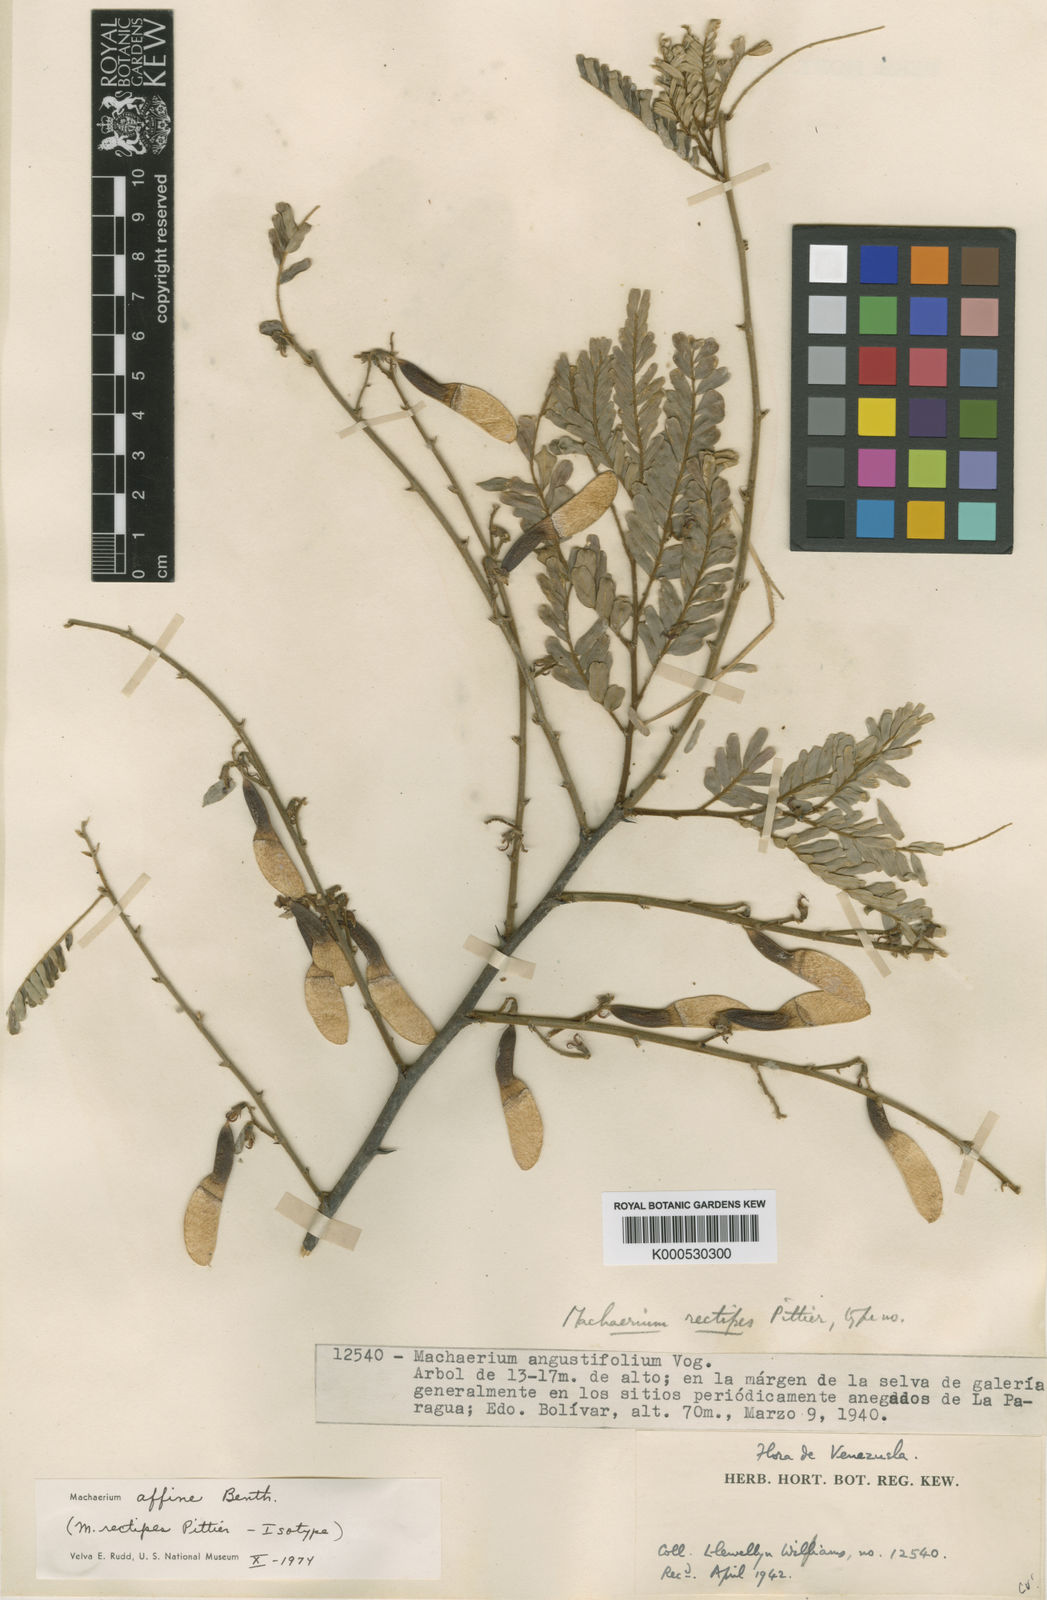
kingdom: Plantae
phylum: Tracheophyta
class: Magnoliopsida
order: Fabales
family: Fabaceae
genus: Machaerium
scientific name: Machaerium hirtum
